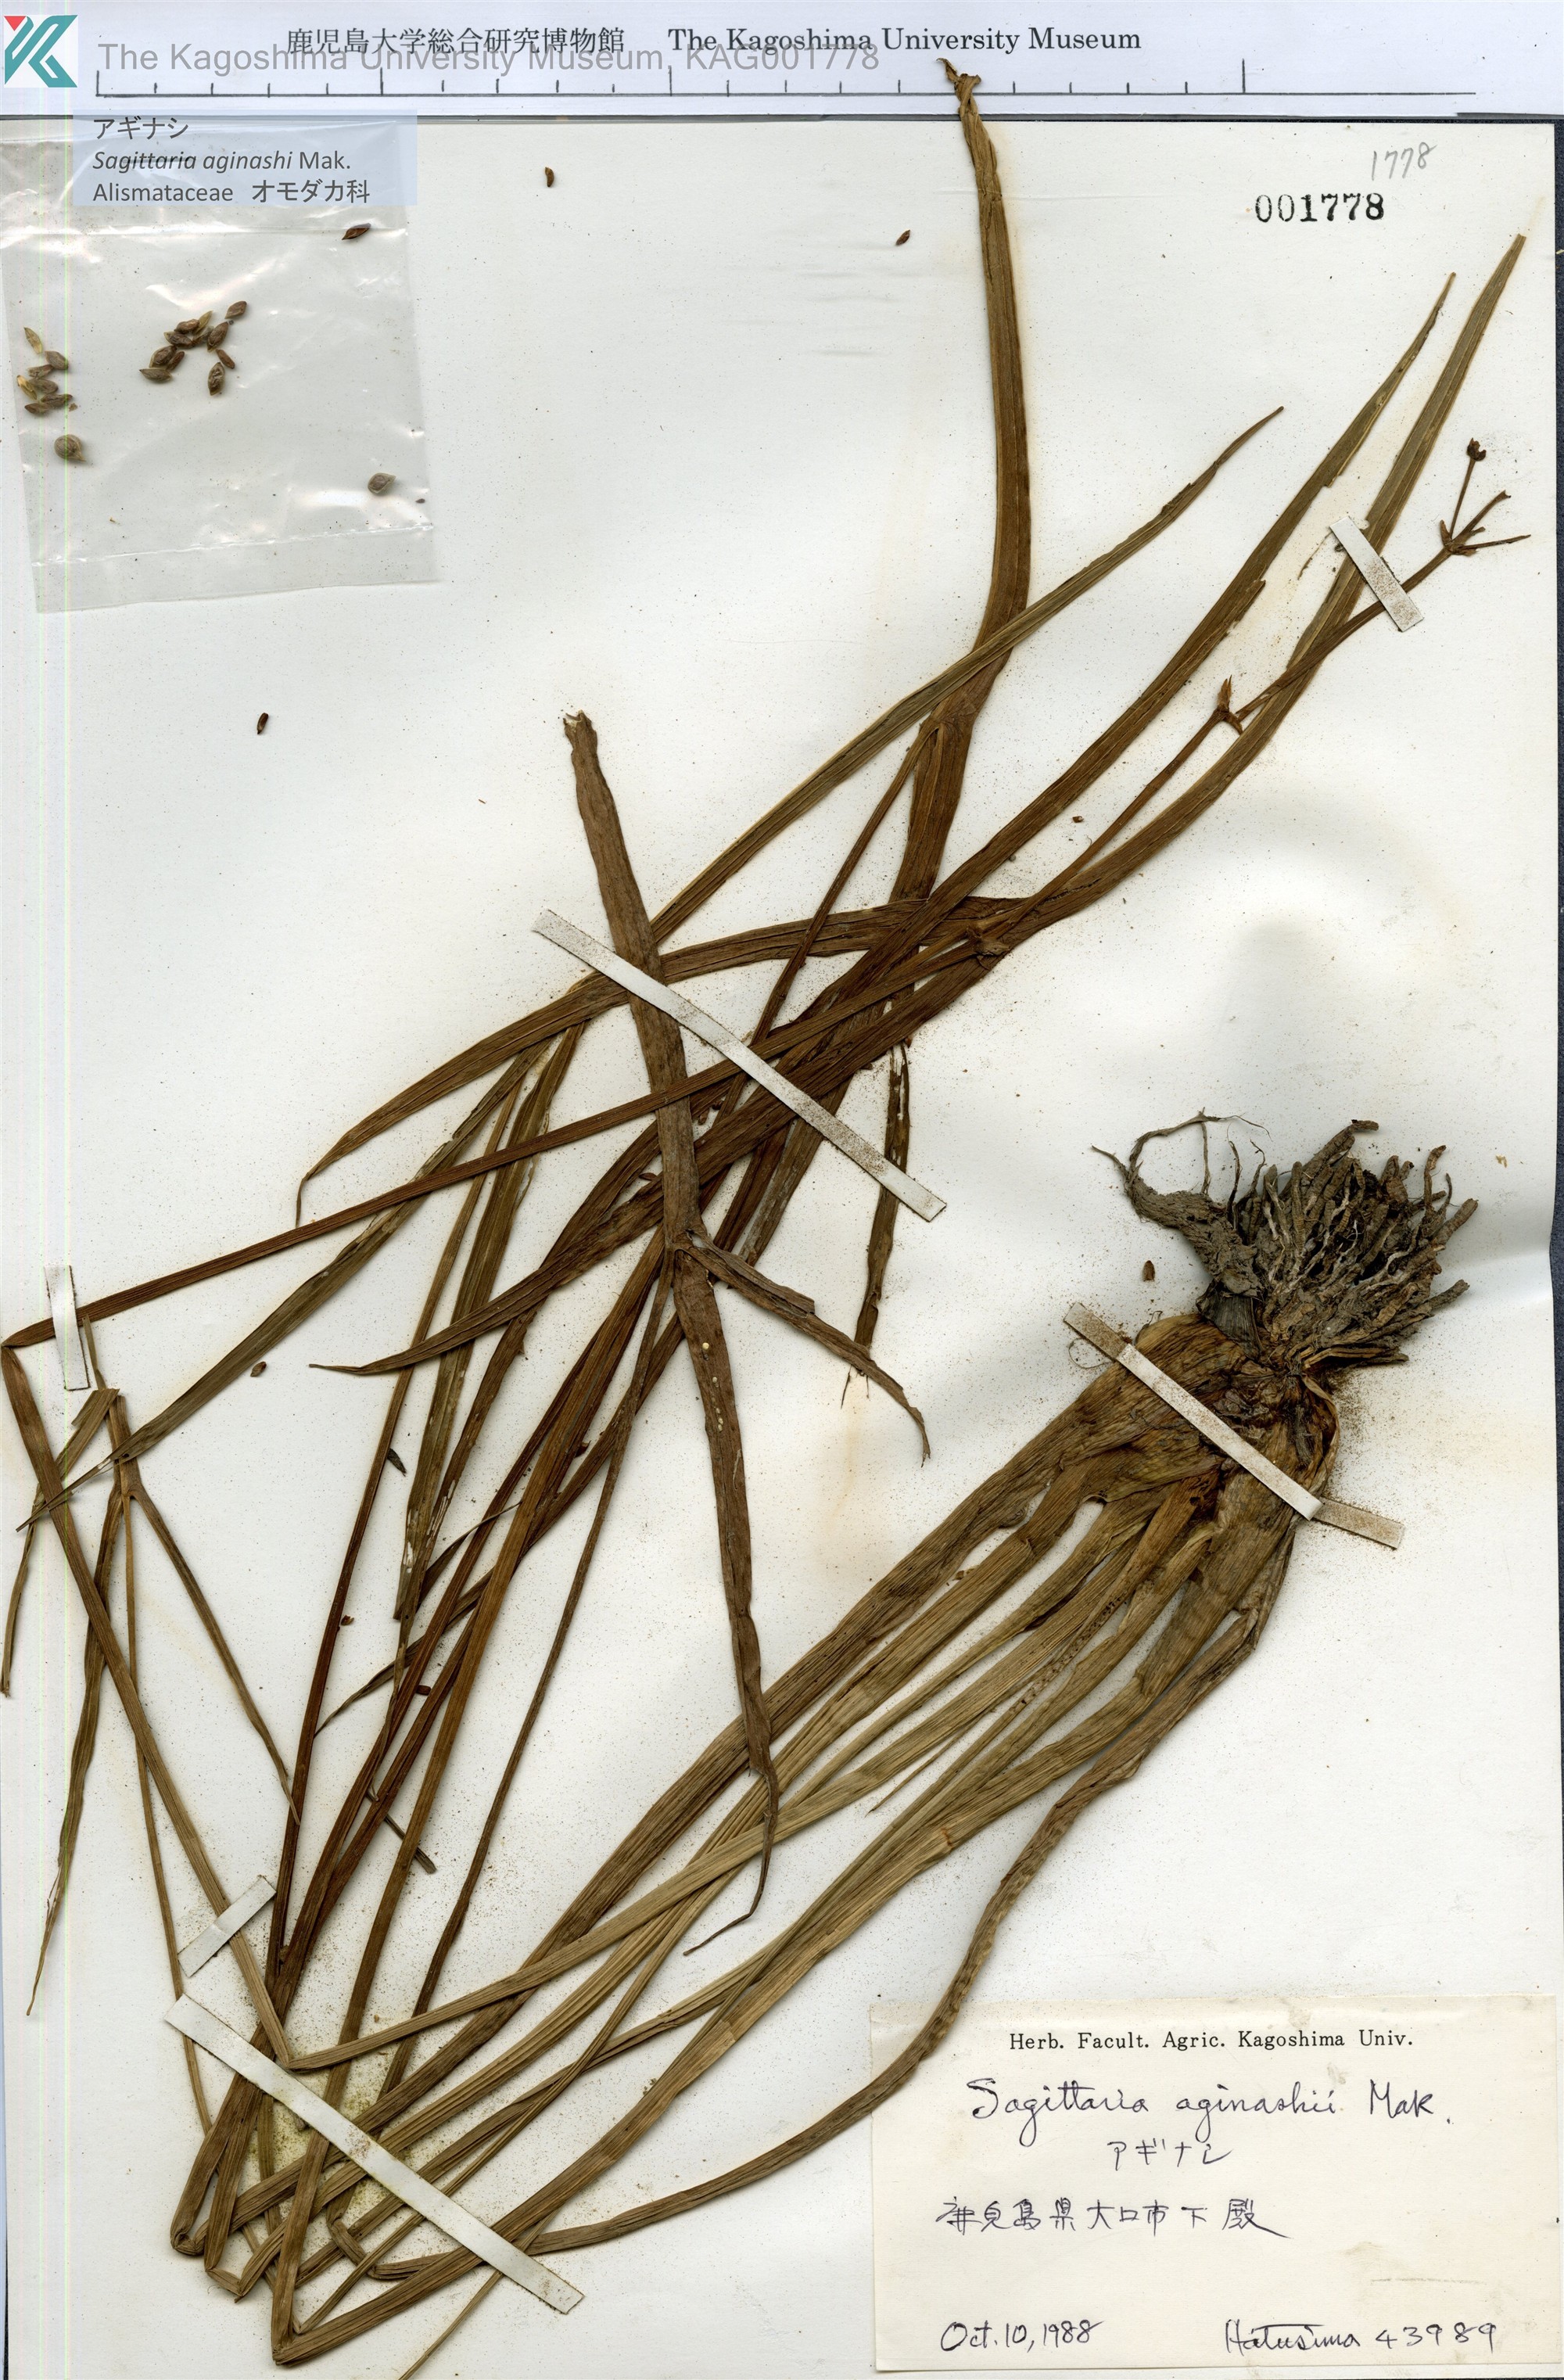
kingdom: Plantae
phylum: Tracheophyta
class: Liliopsida
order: Alismatales
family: Alismataceae
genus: Sagittaria
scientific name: Sagittaria aginashi
